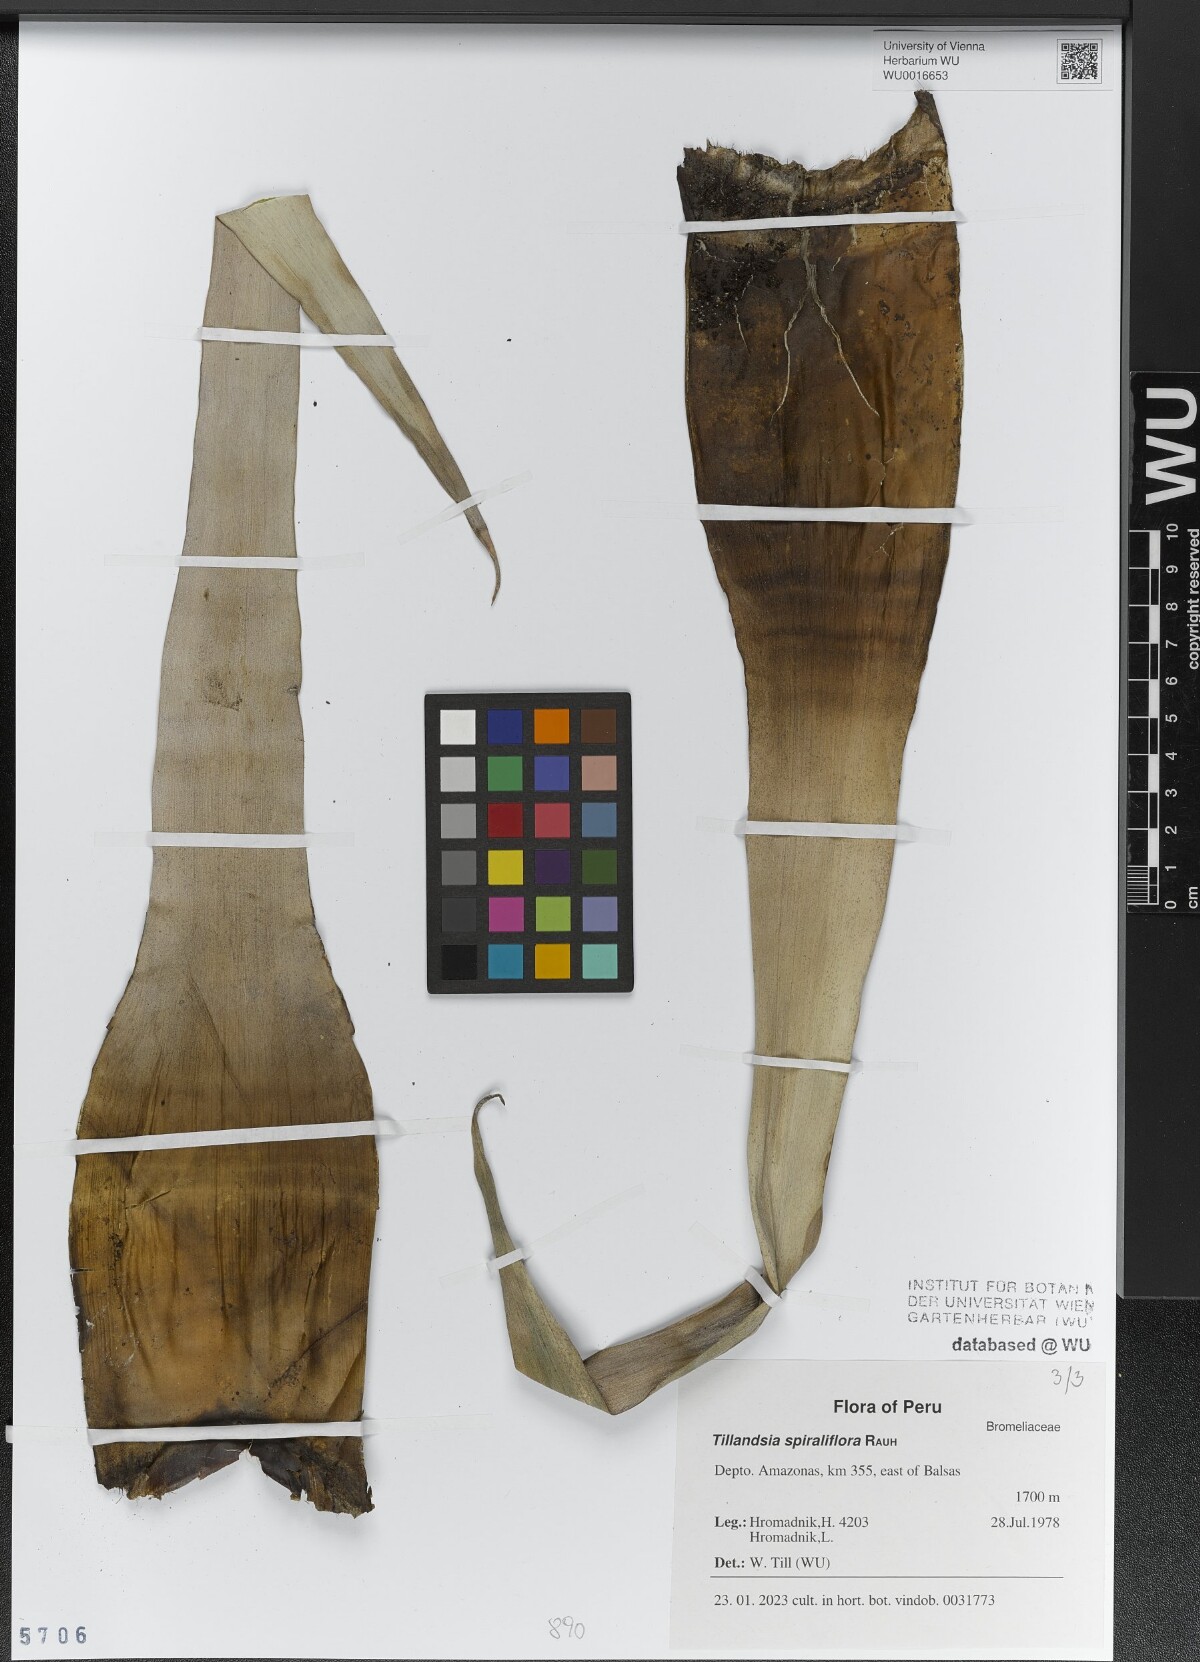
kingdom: Plantae
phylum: Tracheophyta
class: Liliopsida
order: Poales
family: Bromeliaceae
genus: Tillandsia
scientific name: Tillandsia spiraliflora
